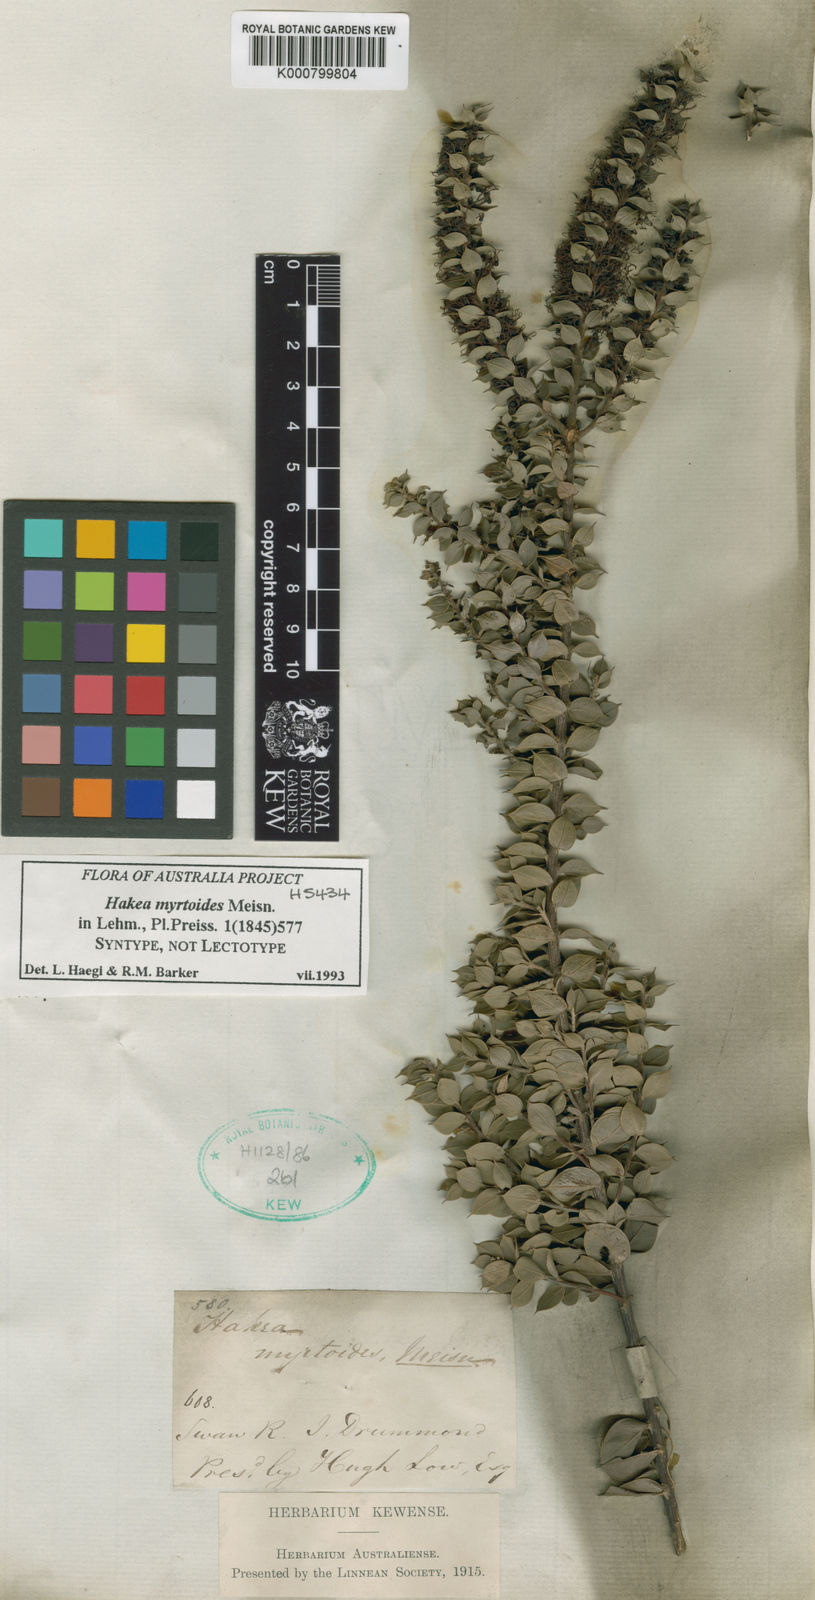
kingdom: Plantae
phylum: Tracheophyta
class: Magnoliopsida
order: Proteales
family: Proteaceae
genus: Hakea
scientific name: Hakea myrtoides
